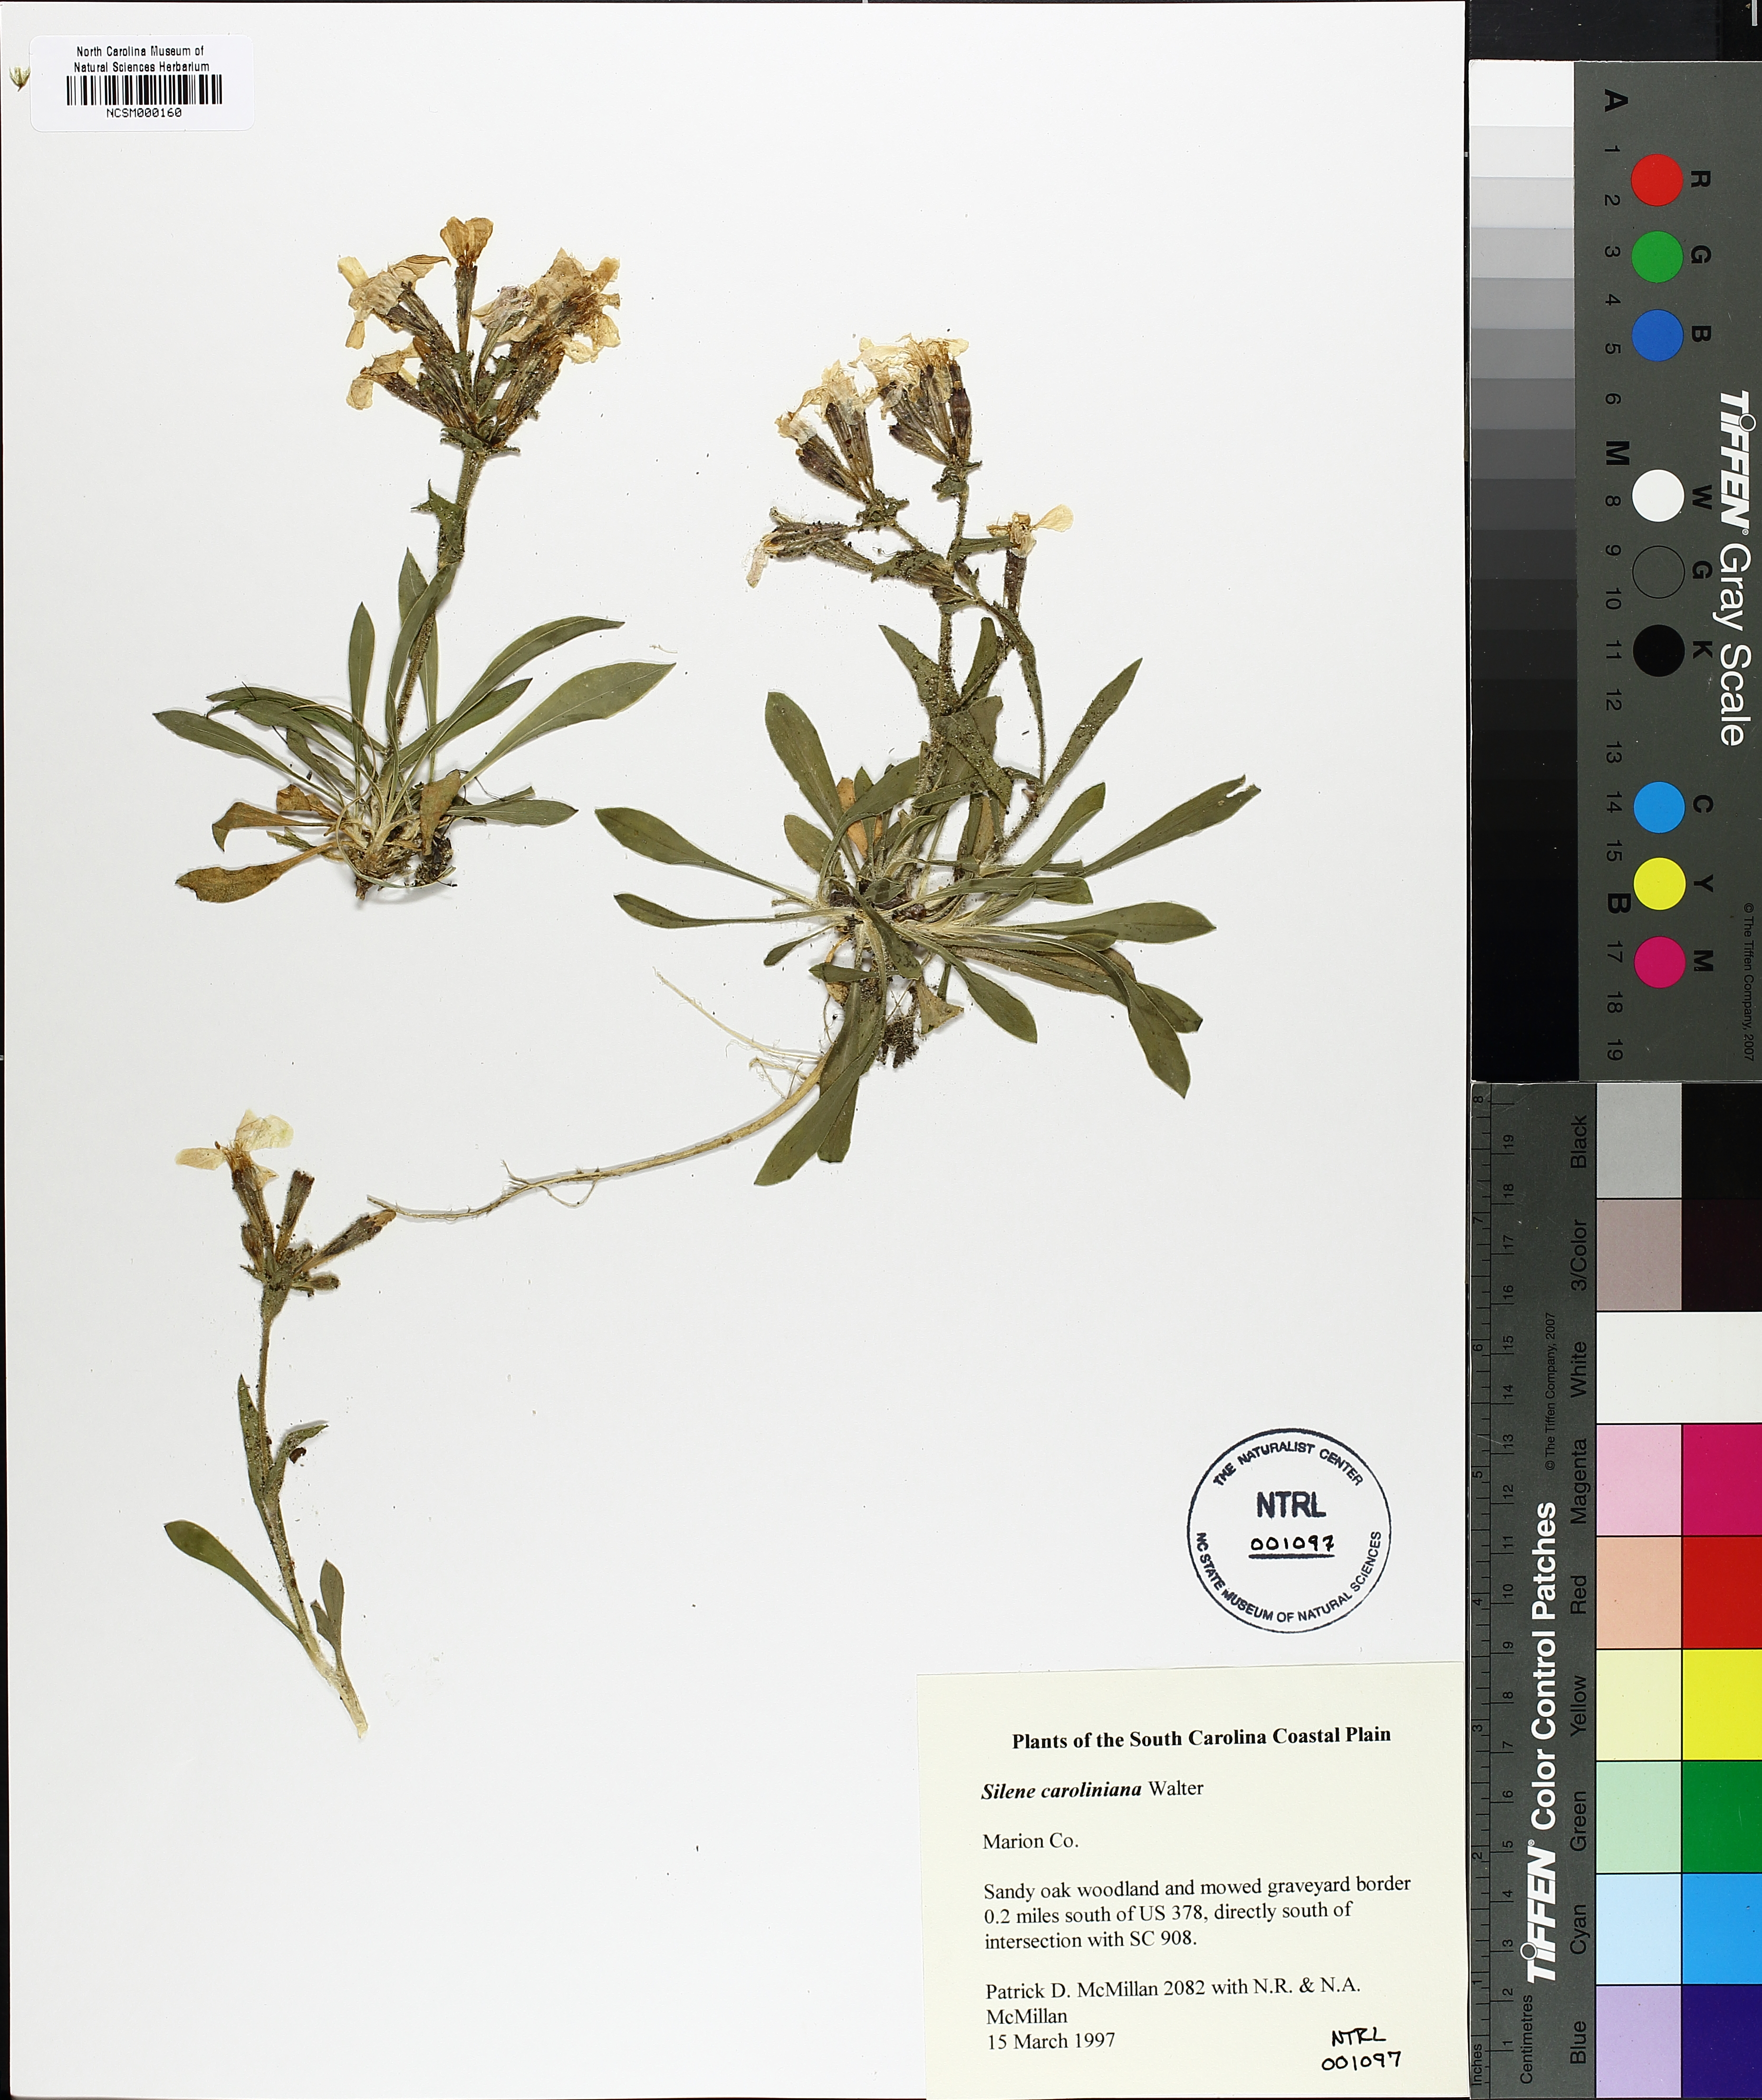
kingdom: Plantae
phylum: Tracheophyta
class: Magnoliopsida
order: Caryophyllales
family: Caryophyllaceae
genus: Silene
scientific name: Silene caroliniana
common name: Sticky catchfly
